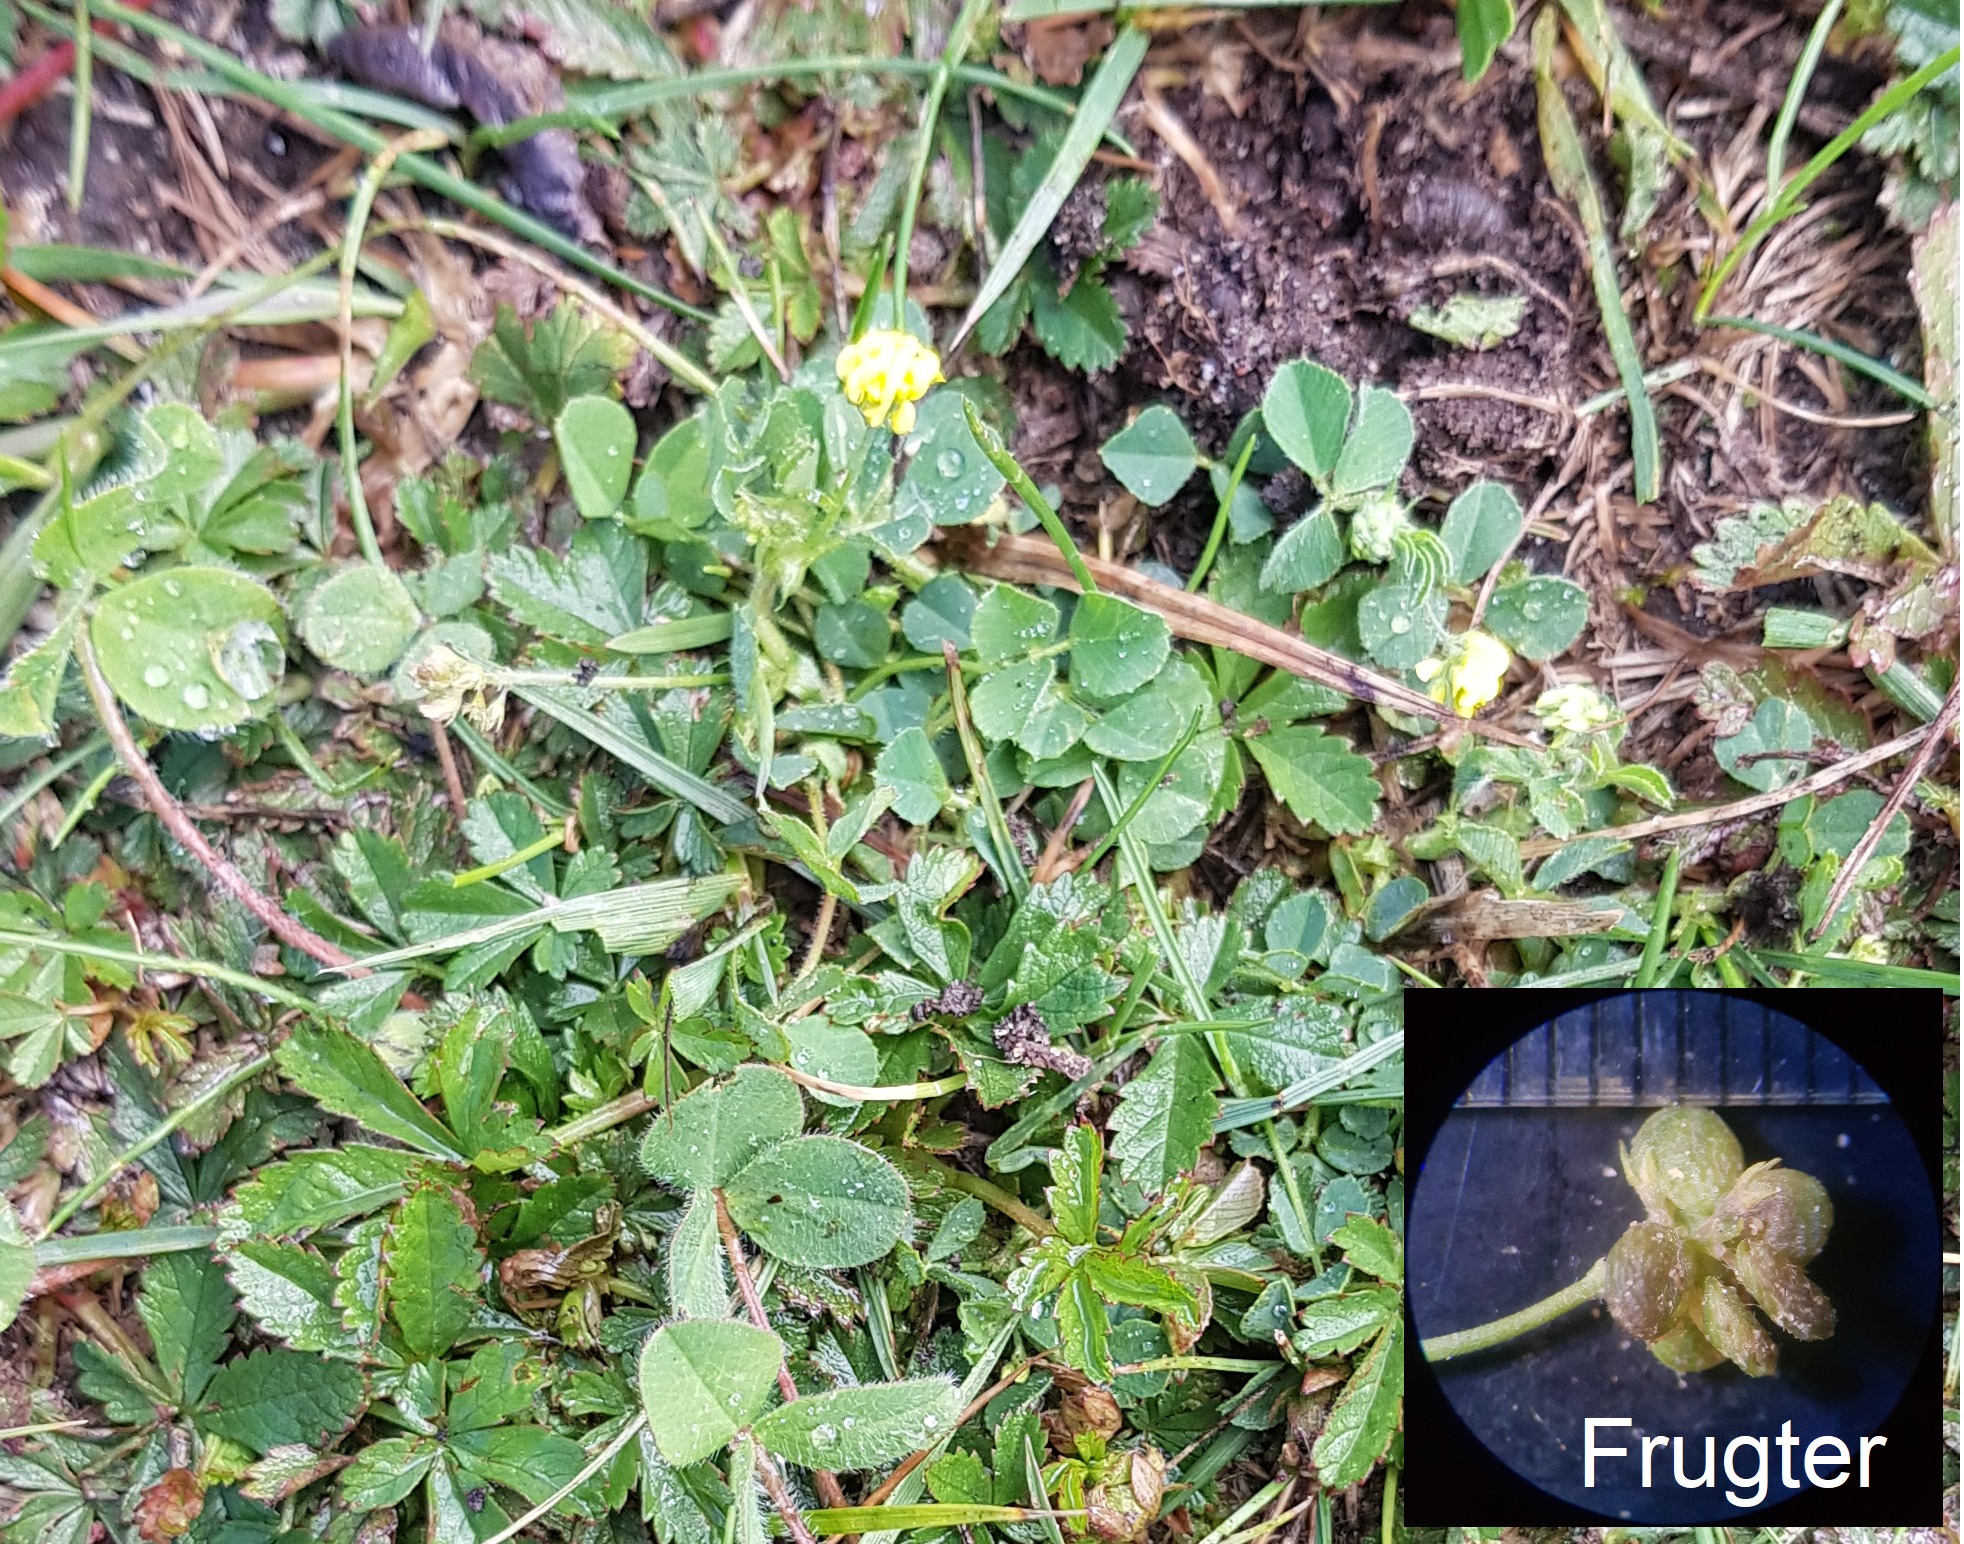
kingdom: Plantae
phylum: Tracheophyta
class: Magnoliopsida
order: Fabales
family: Fabaceae
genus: Medicago
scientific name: Medicago lupulina
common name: Humle-sneglebælg
